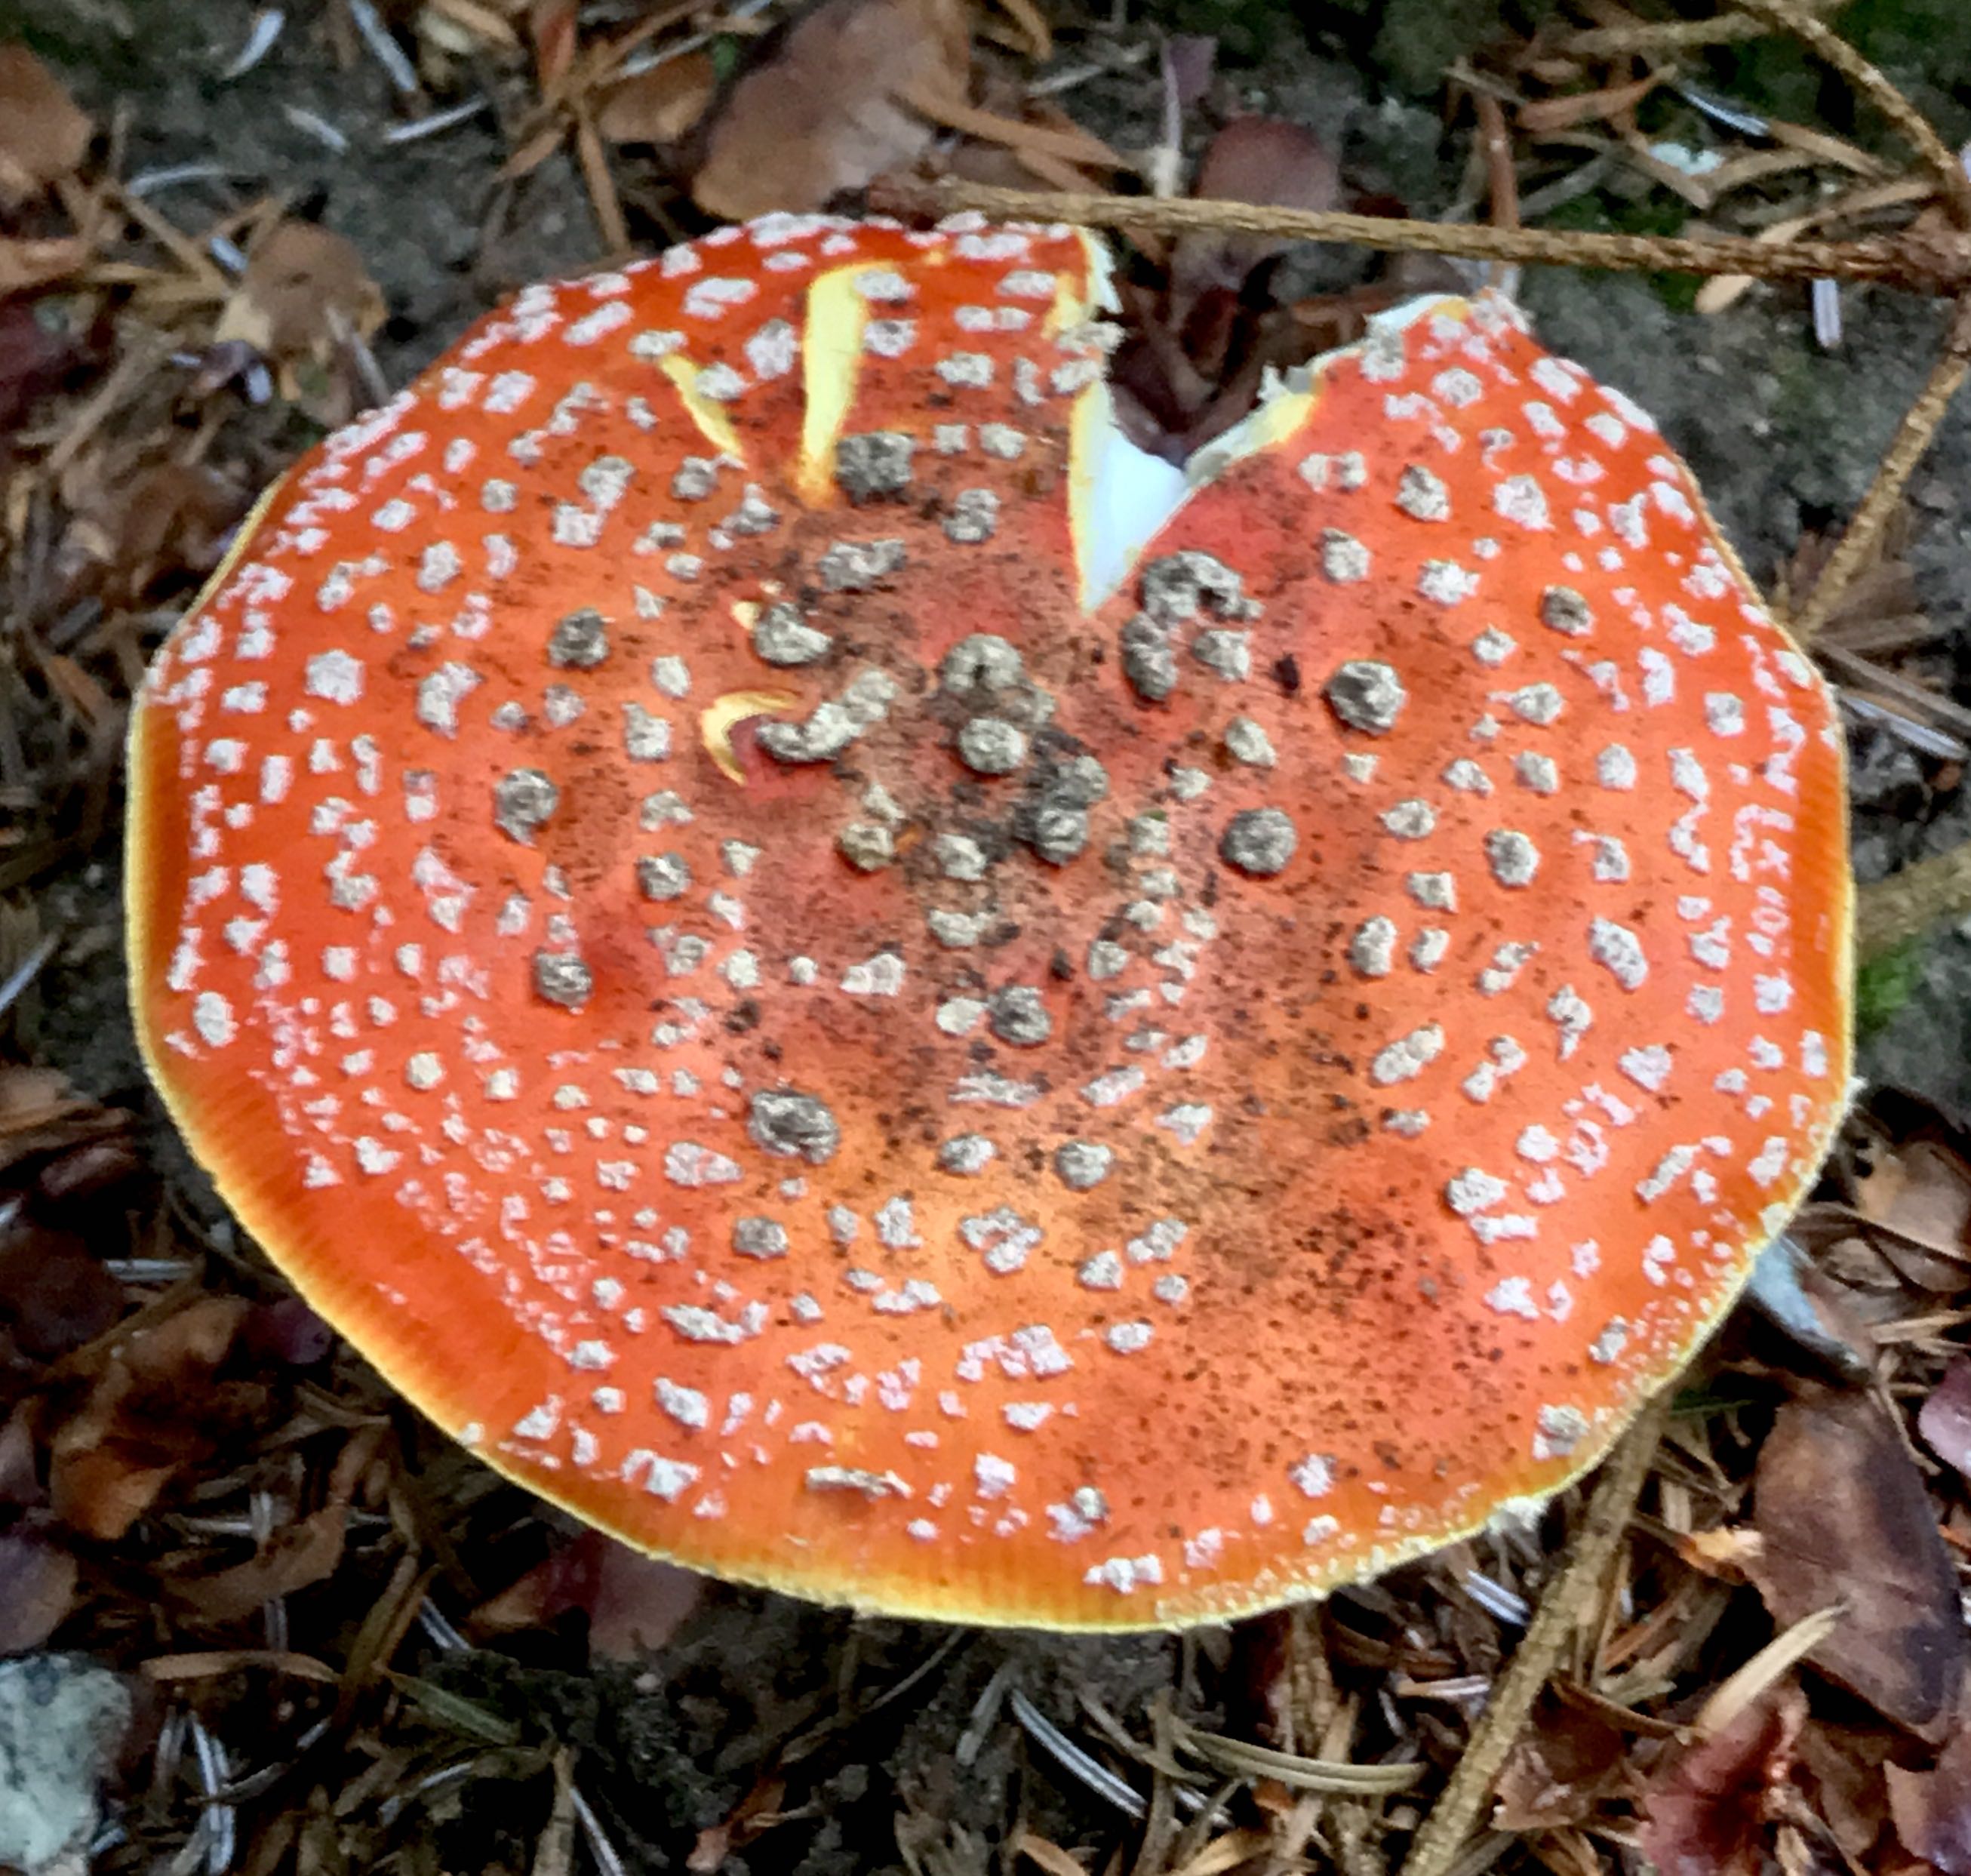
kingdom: Fungi
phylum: Basidiomycota
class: Agaricomycetes
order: Agaricales
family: Amanitaceae
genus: Amanita
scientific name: Amanita muscaria
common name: rød fluesvamp
